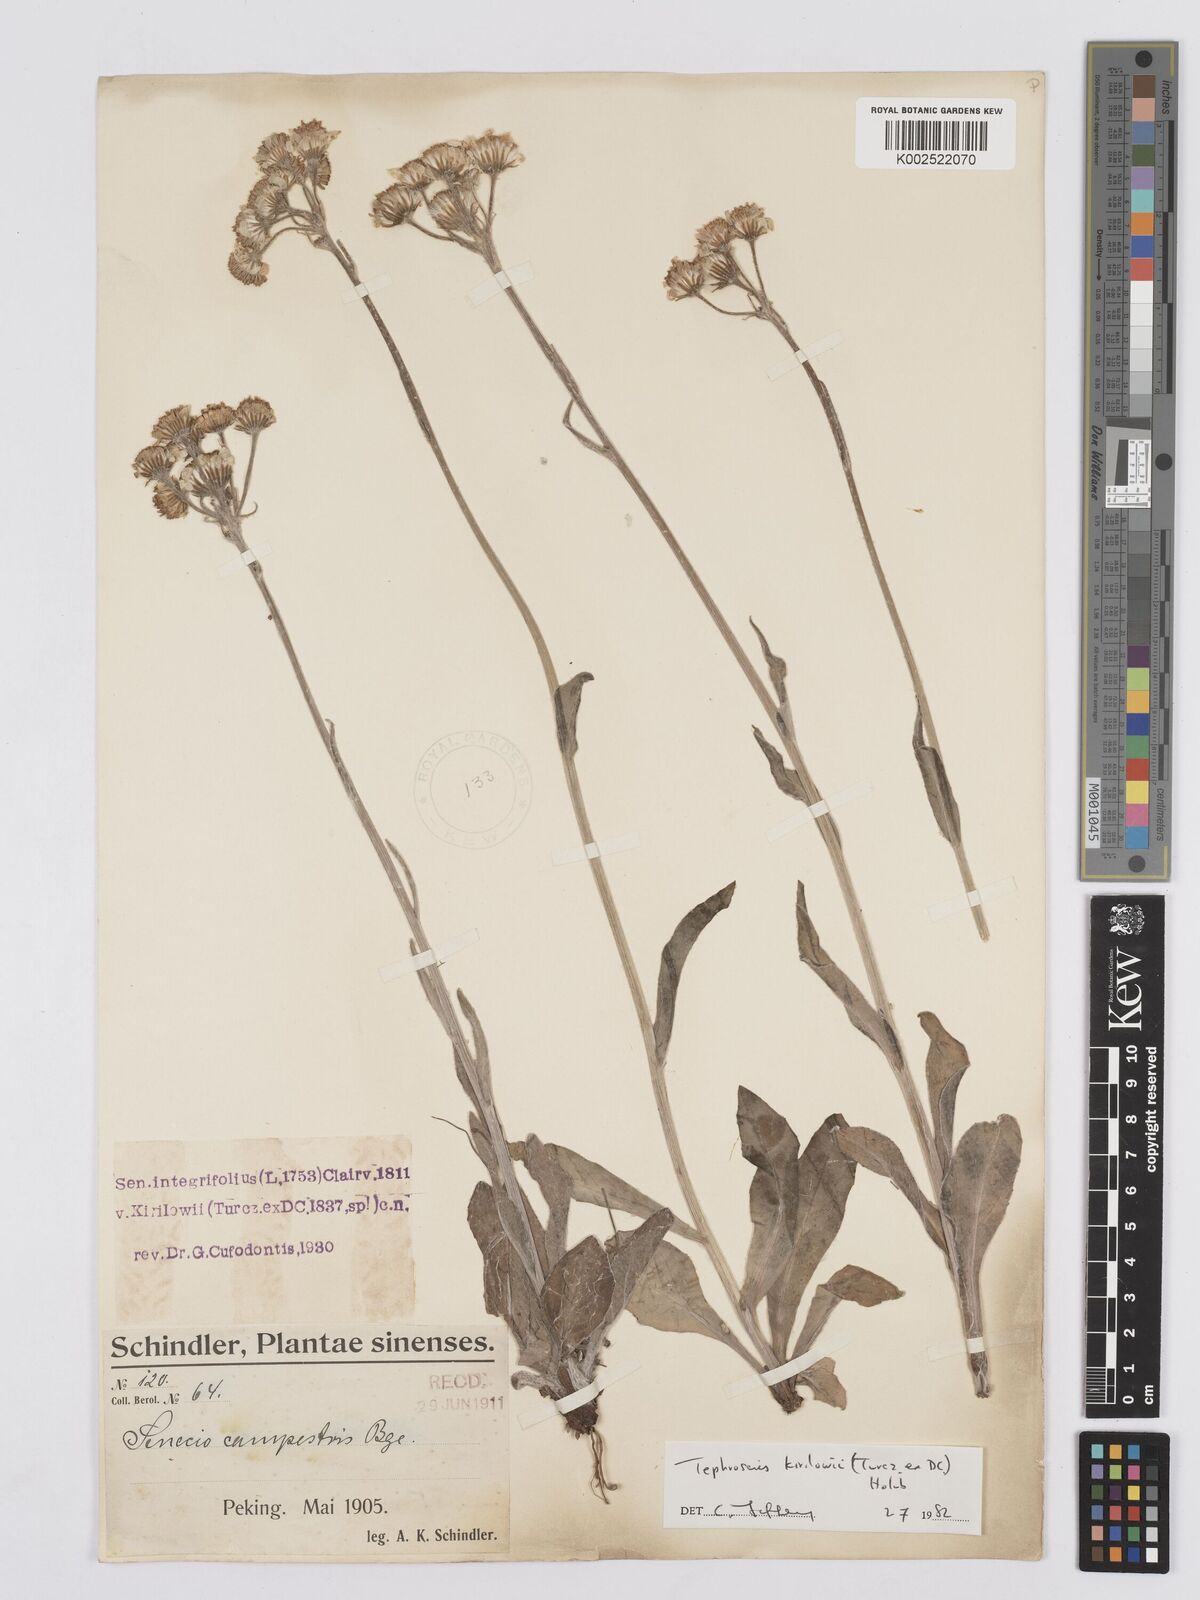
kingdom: Plantae
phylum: Tracheophyta
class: Magnoliopsida
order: Asterales
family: Asteraceae
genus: Tephroseris
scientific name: Tephroseris kirilowii
